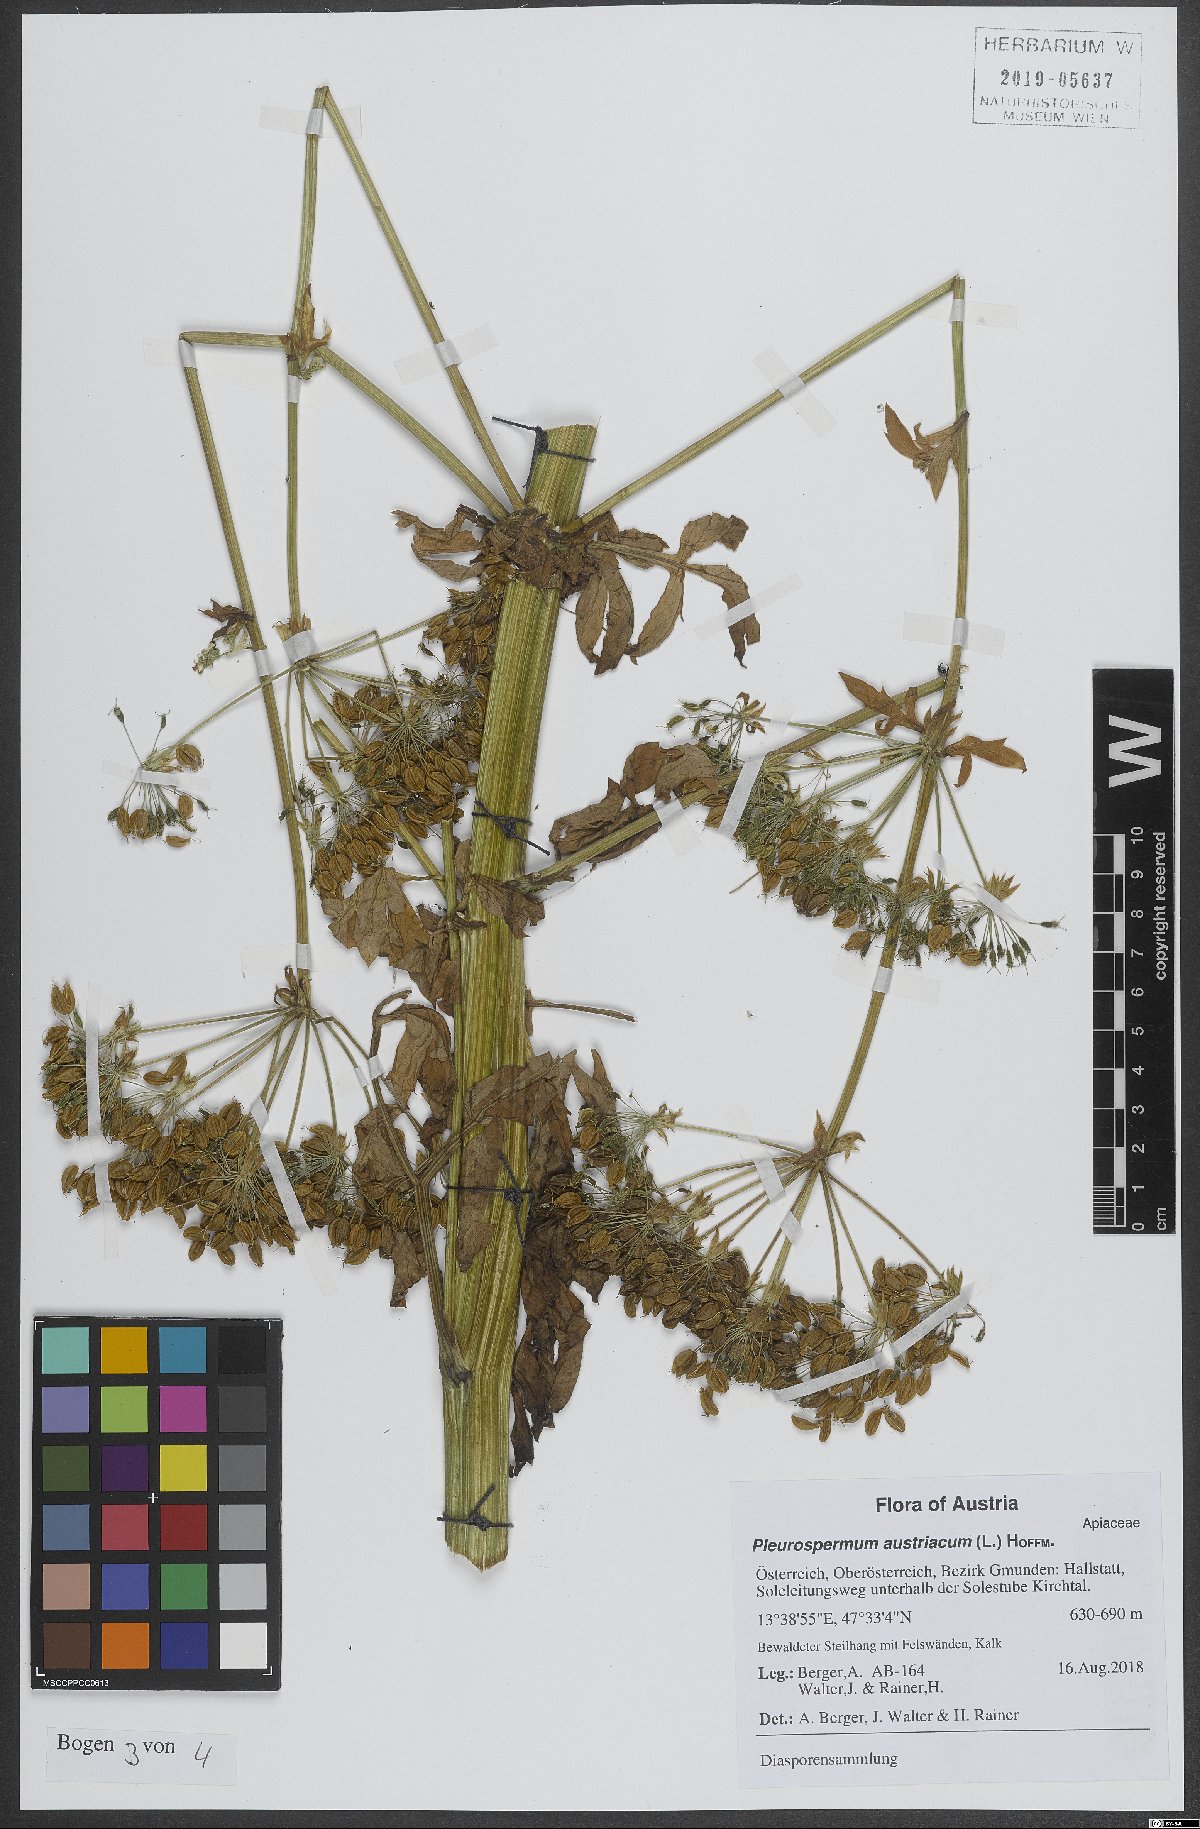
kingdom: Plantae
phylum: Tracheophyta
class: Magnoliopsida
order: Apiales
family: Apiaceae
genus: Pleurospermum
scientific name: Pleurospermum austriacum
